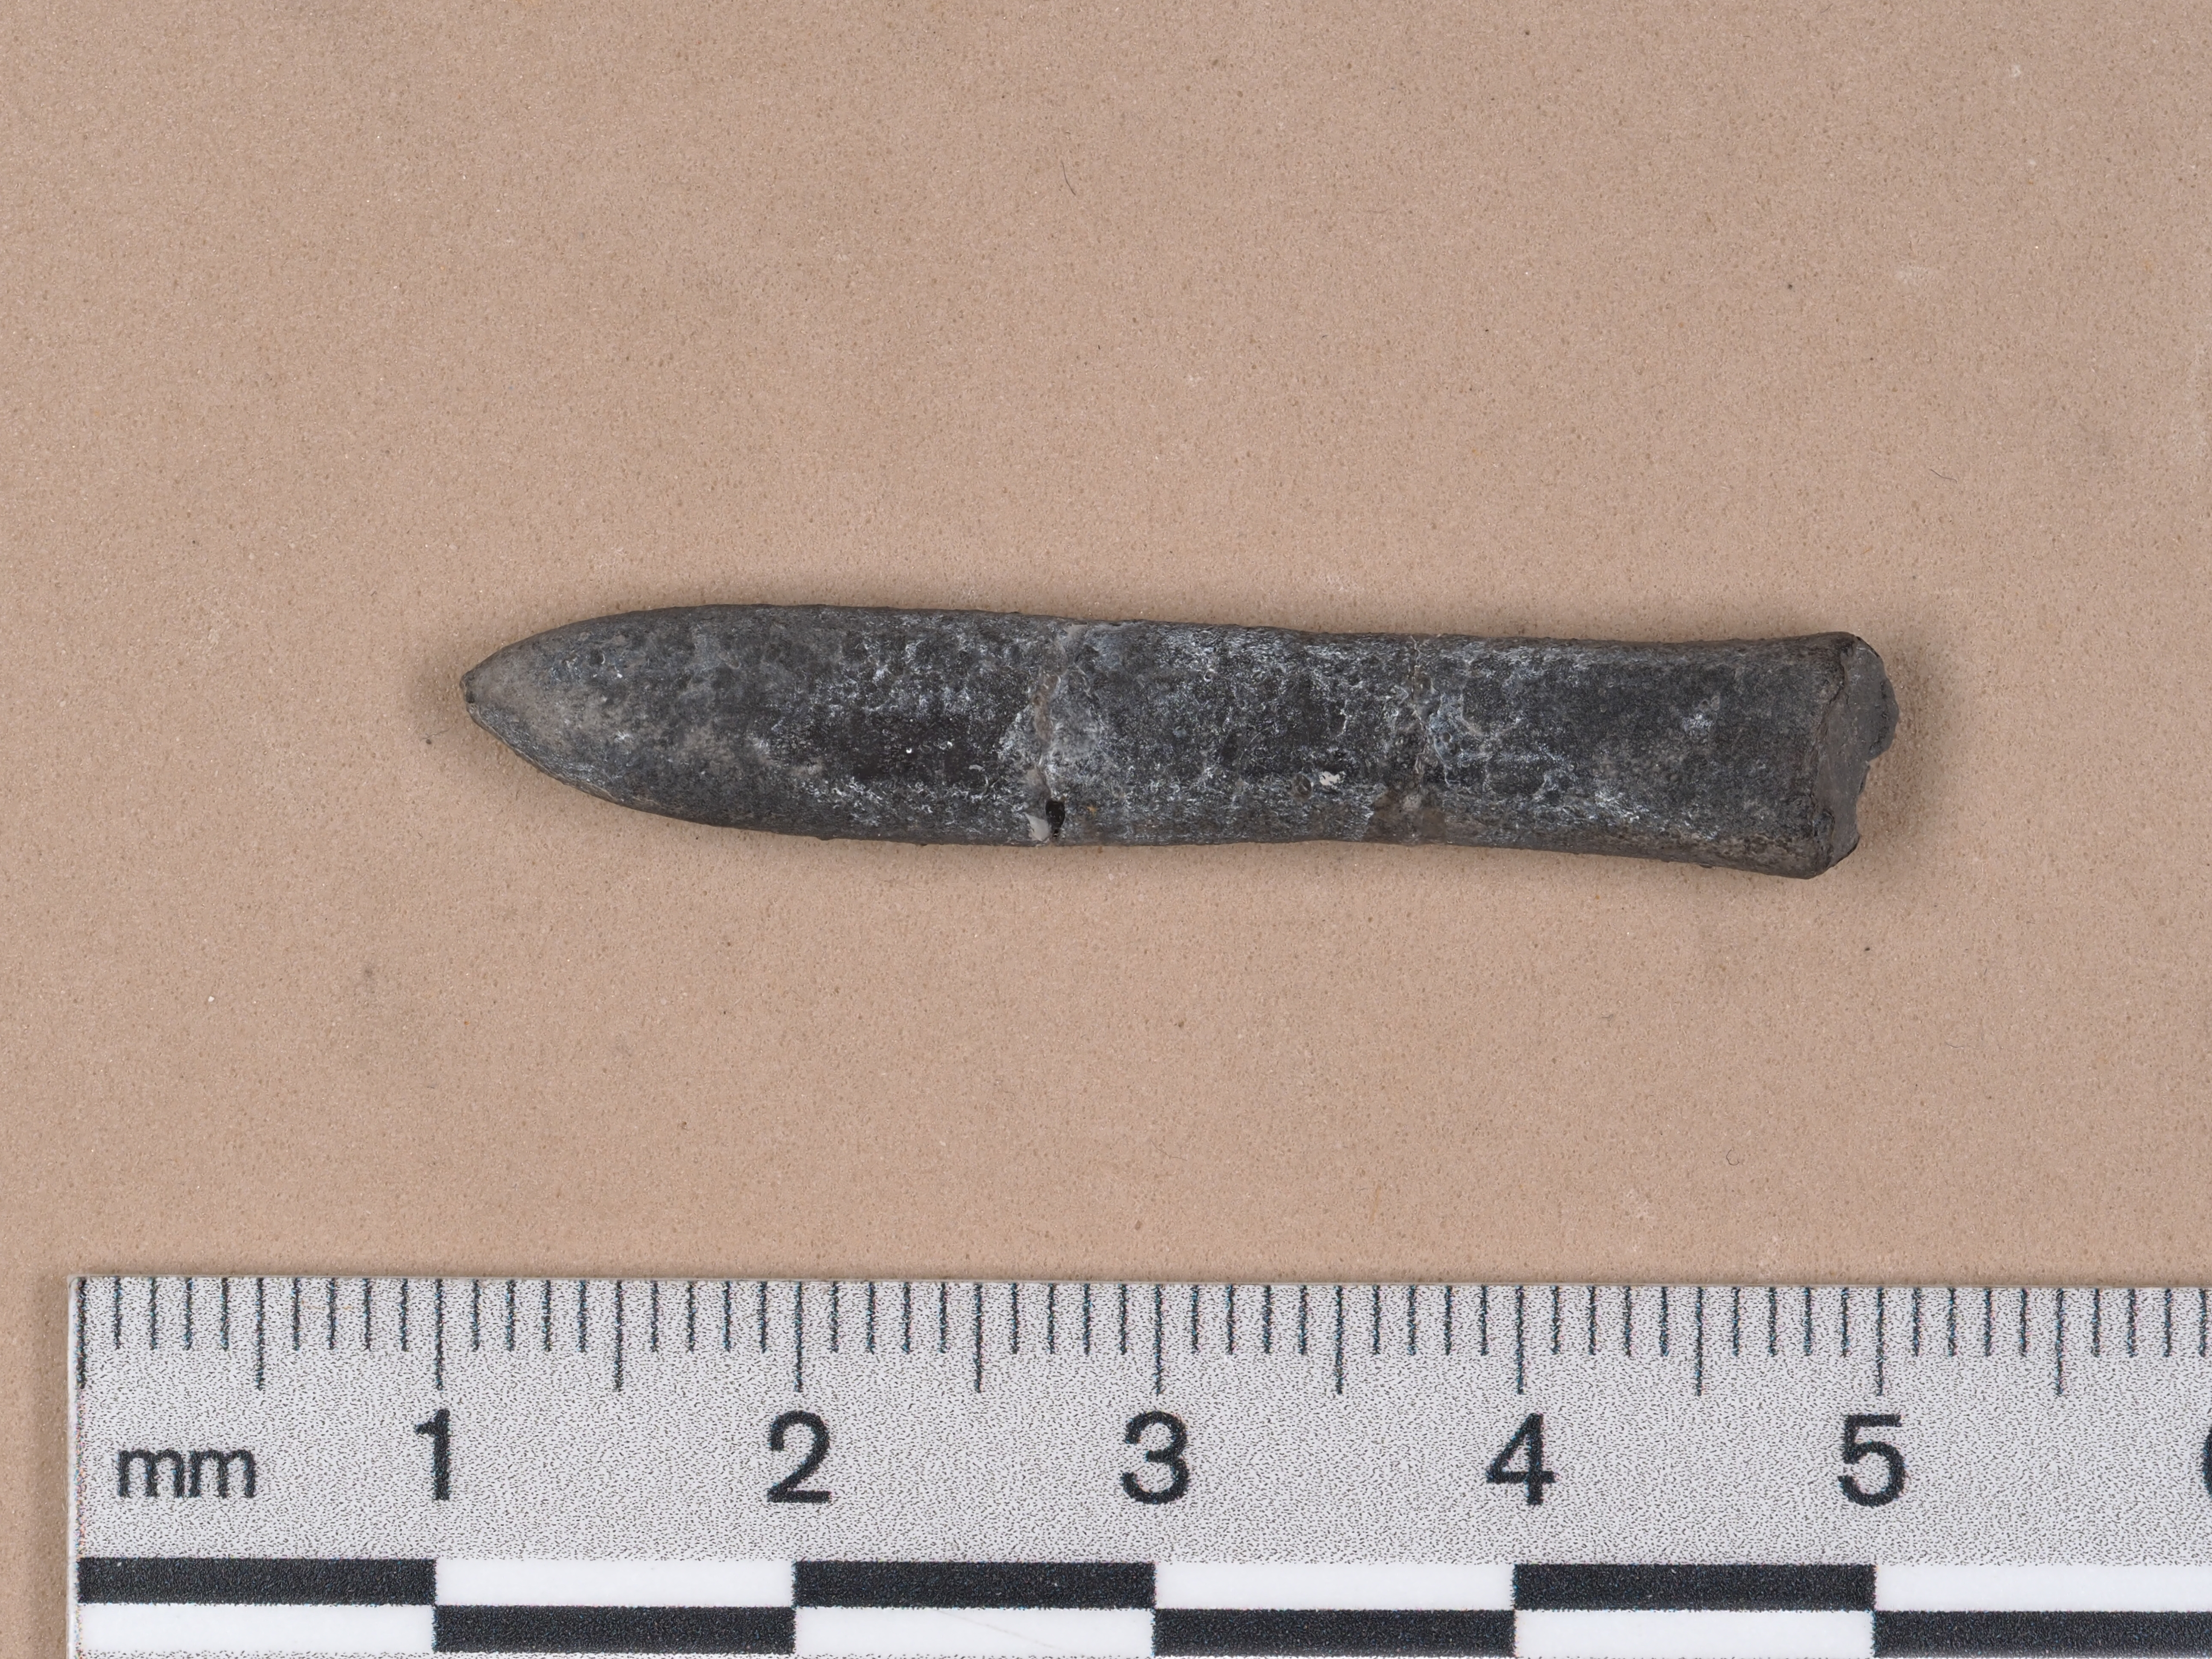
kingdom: Animalia
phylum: Mollusca
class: Cephalopoda
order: Belemnitida
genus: Pleurobelus
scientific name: Pleurobelus compressus
